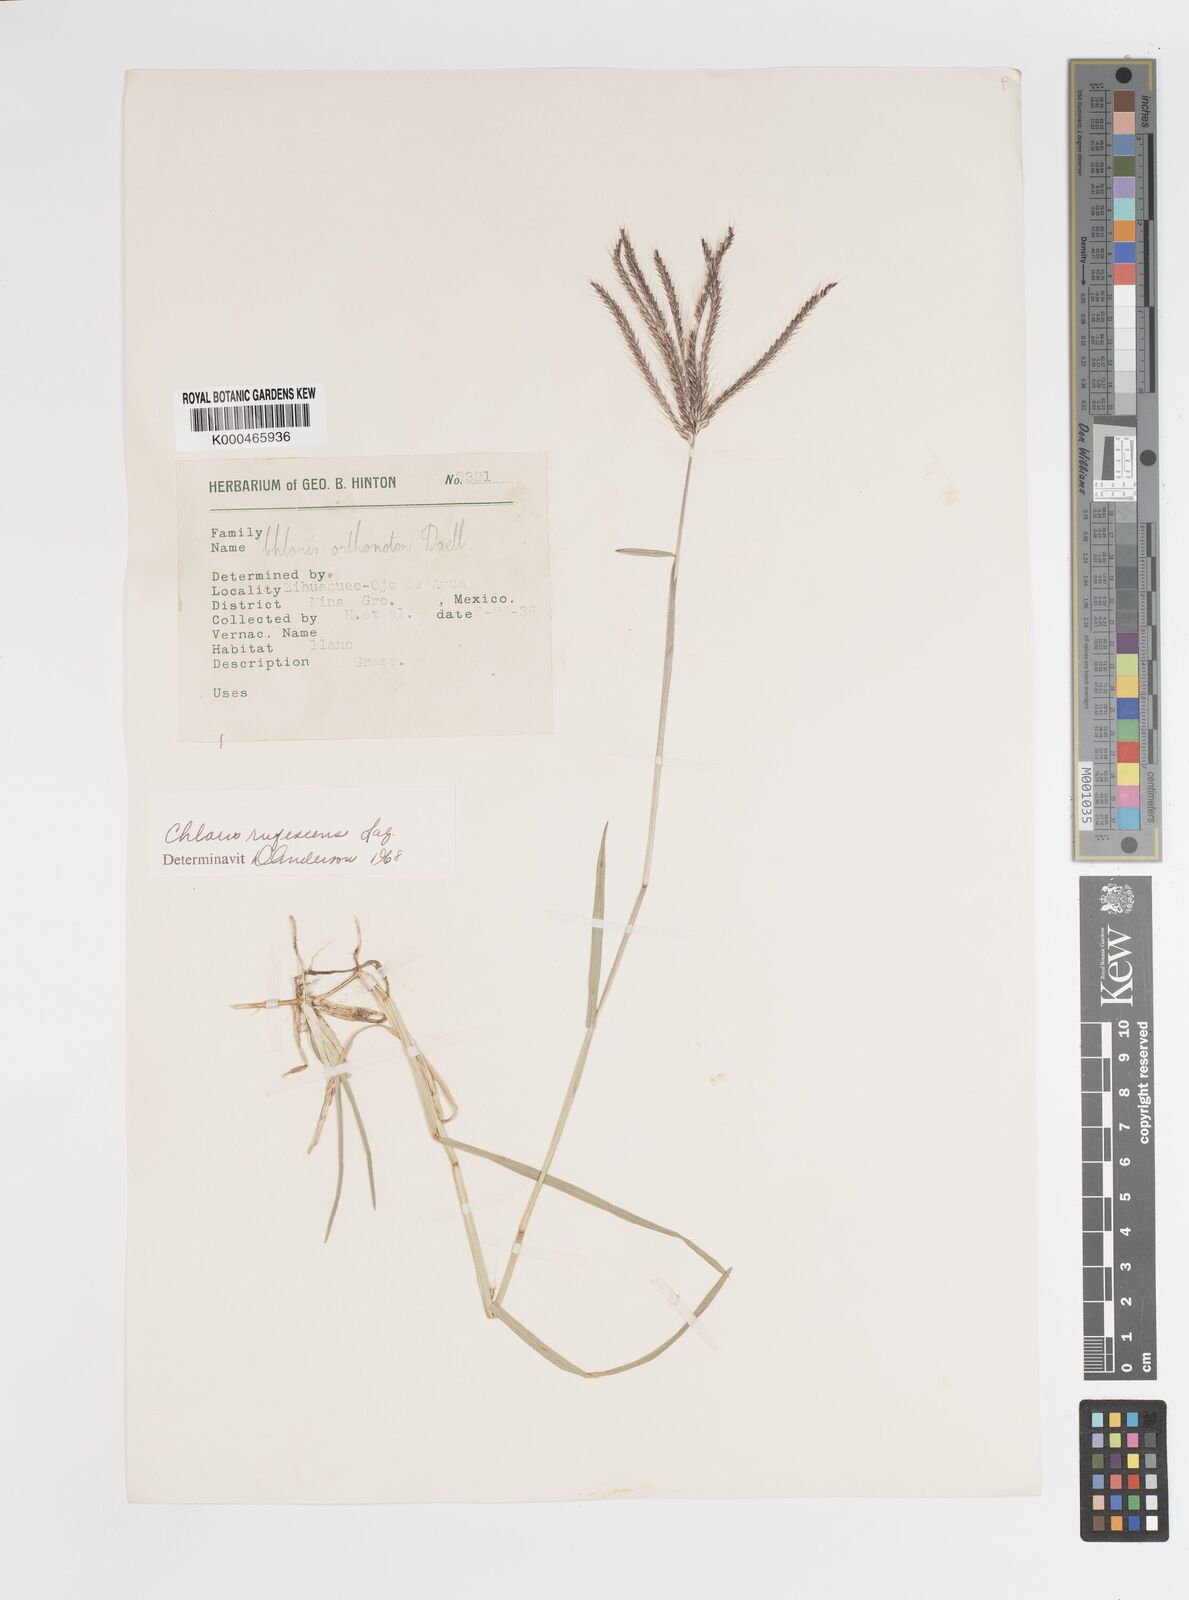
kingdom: Plantae
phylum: Tracheophyta
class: Liliopsida
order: Poales
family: Poaceae
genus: Chloris
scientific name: Chloris rufescens
